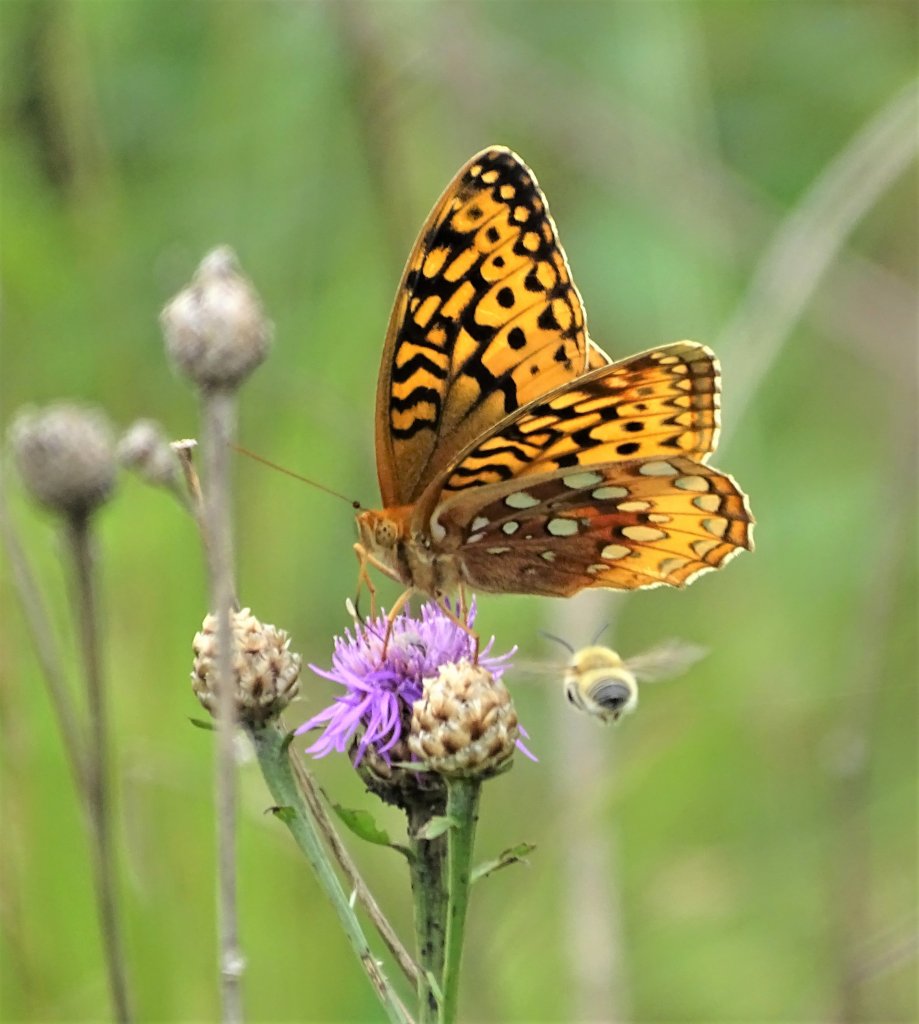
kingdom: Animalia
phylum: Arthropoda
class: Insecta
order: Lepidoptera
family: Nymphalidae
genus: Speyeria
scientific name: Speyeria cybele
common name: Great Spangled Fritillary
